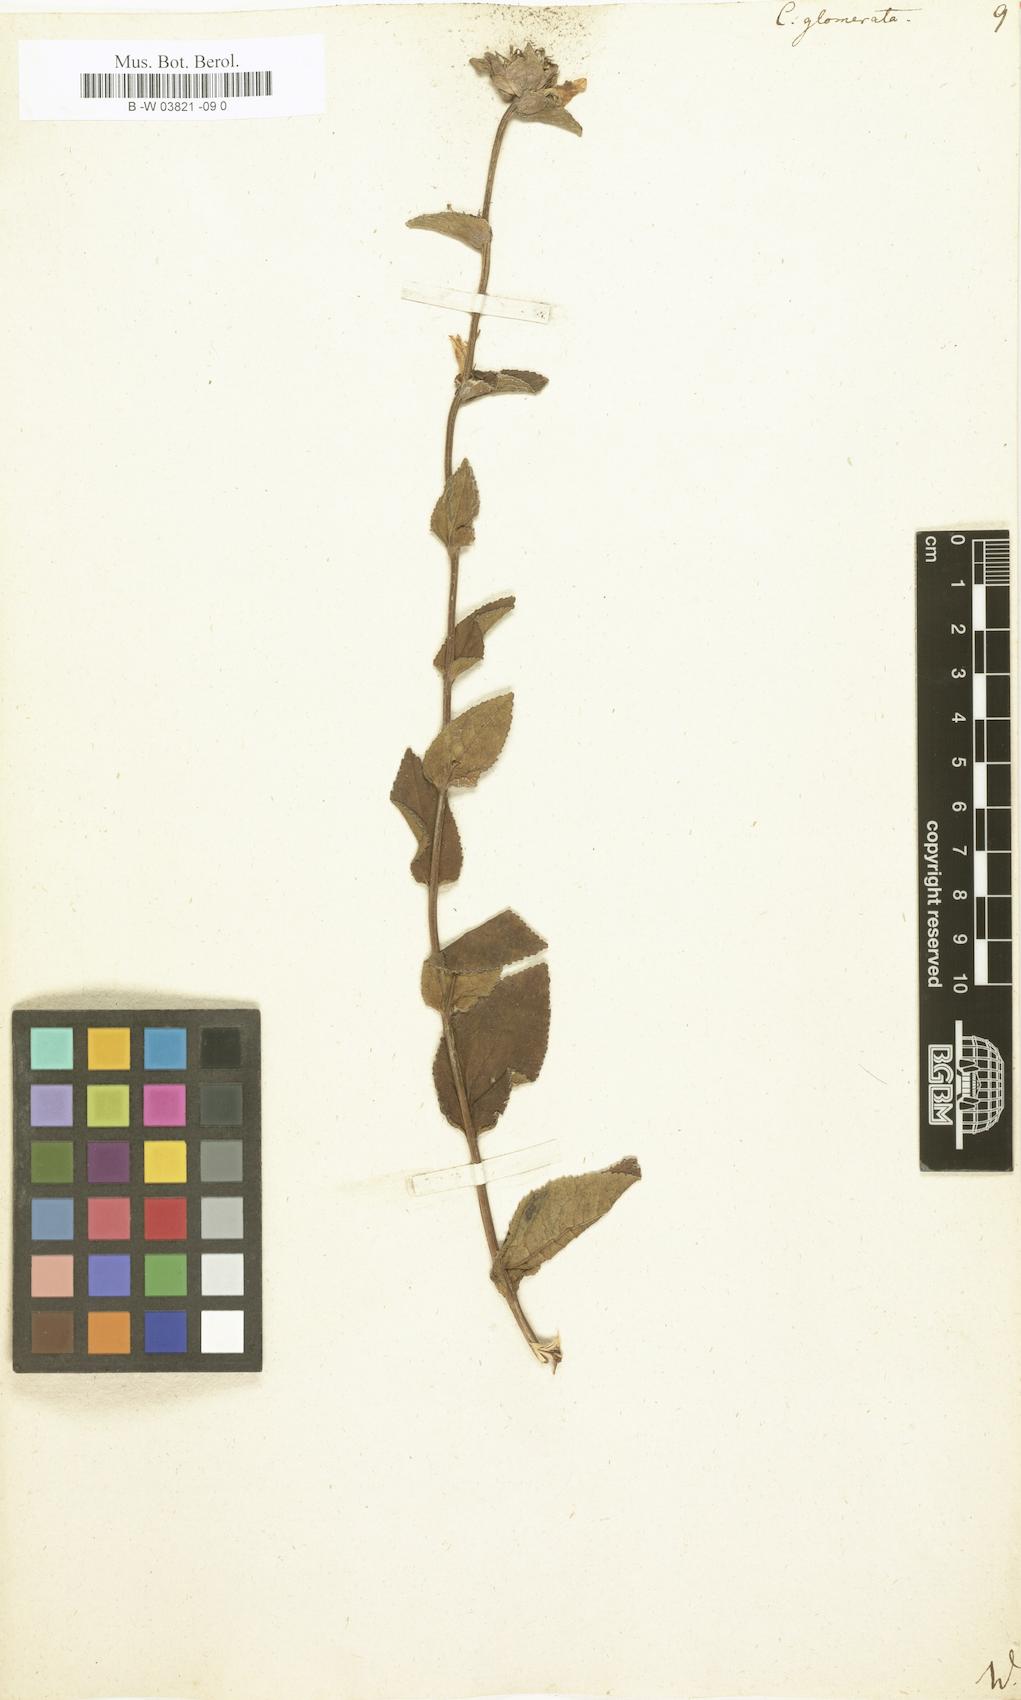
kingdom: Plantae
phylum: Tracheophyta
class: Magnoliopsida
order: Asterales
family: Campanulaceae
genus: Campanula
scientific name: Campanula glomerata
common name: Clustered bellflower
